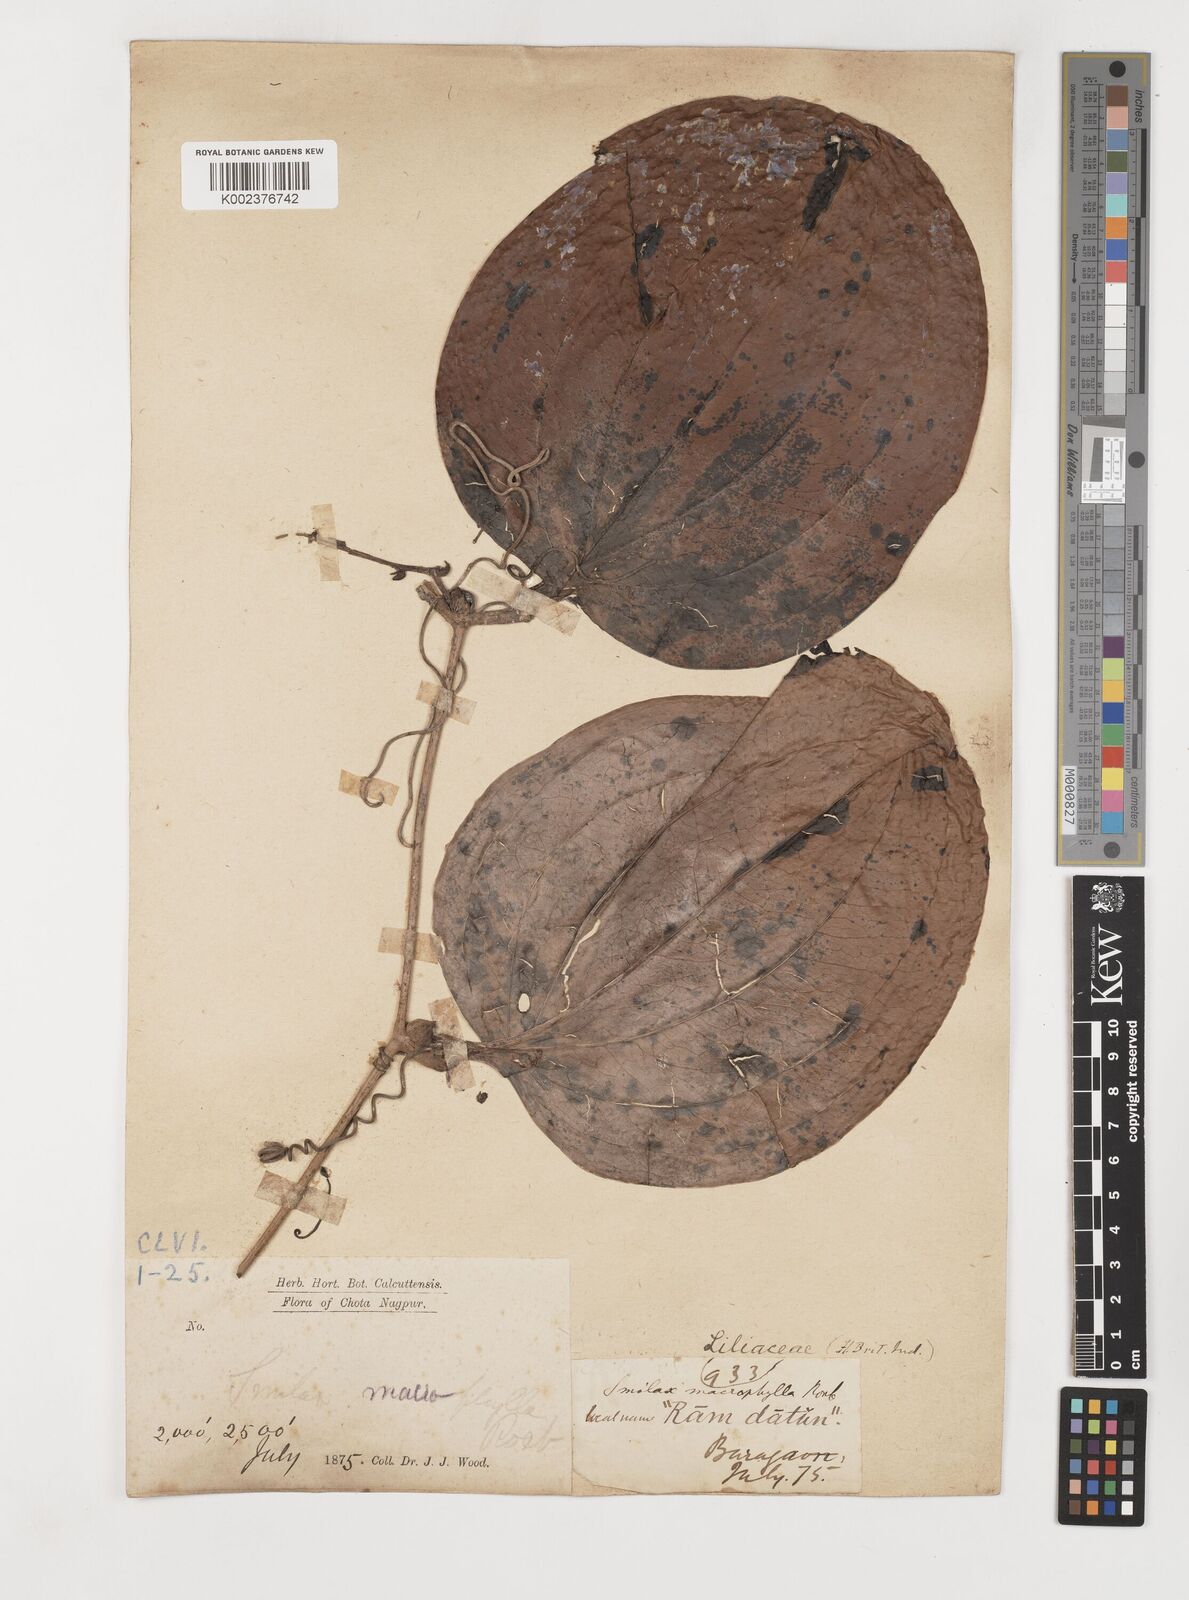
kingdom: Plantae
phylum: Tracheophyta
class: Liliopsida
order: Liliales
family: Smilacaceae
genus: Smilax
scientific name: Smilax ovalifolia
